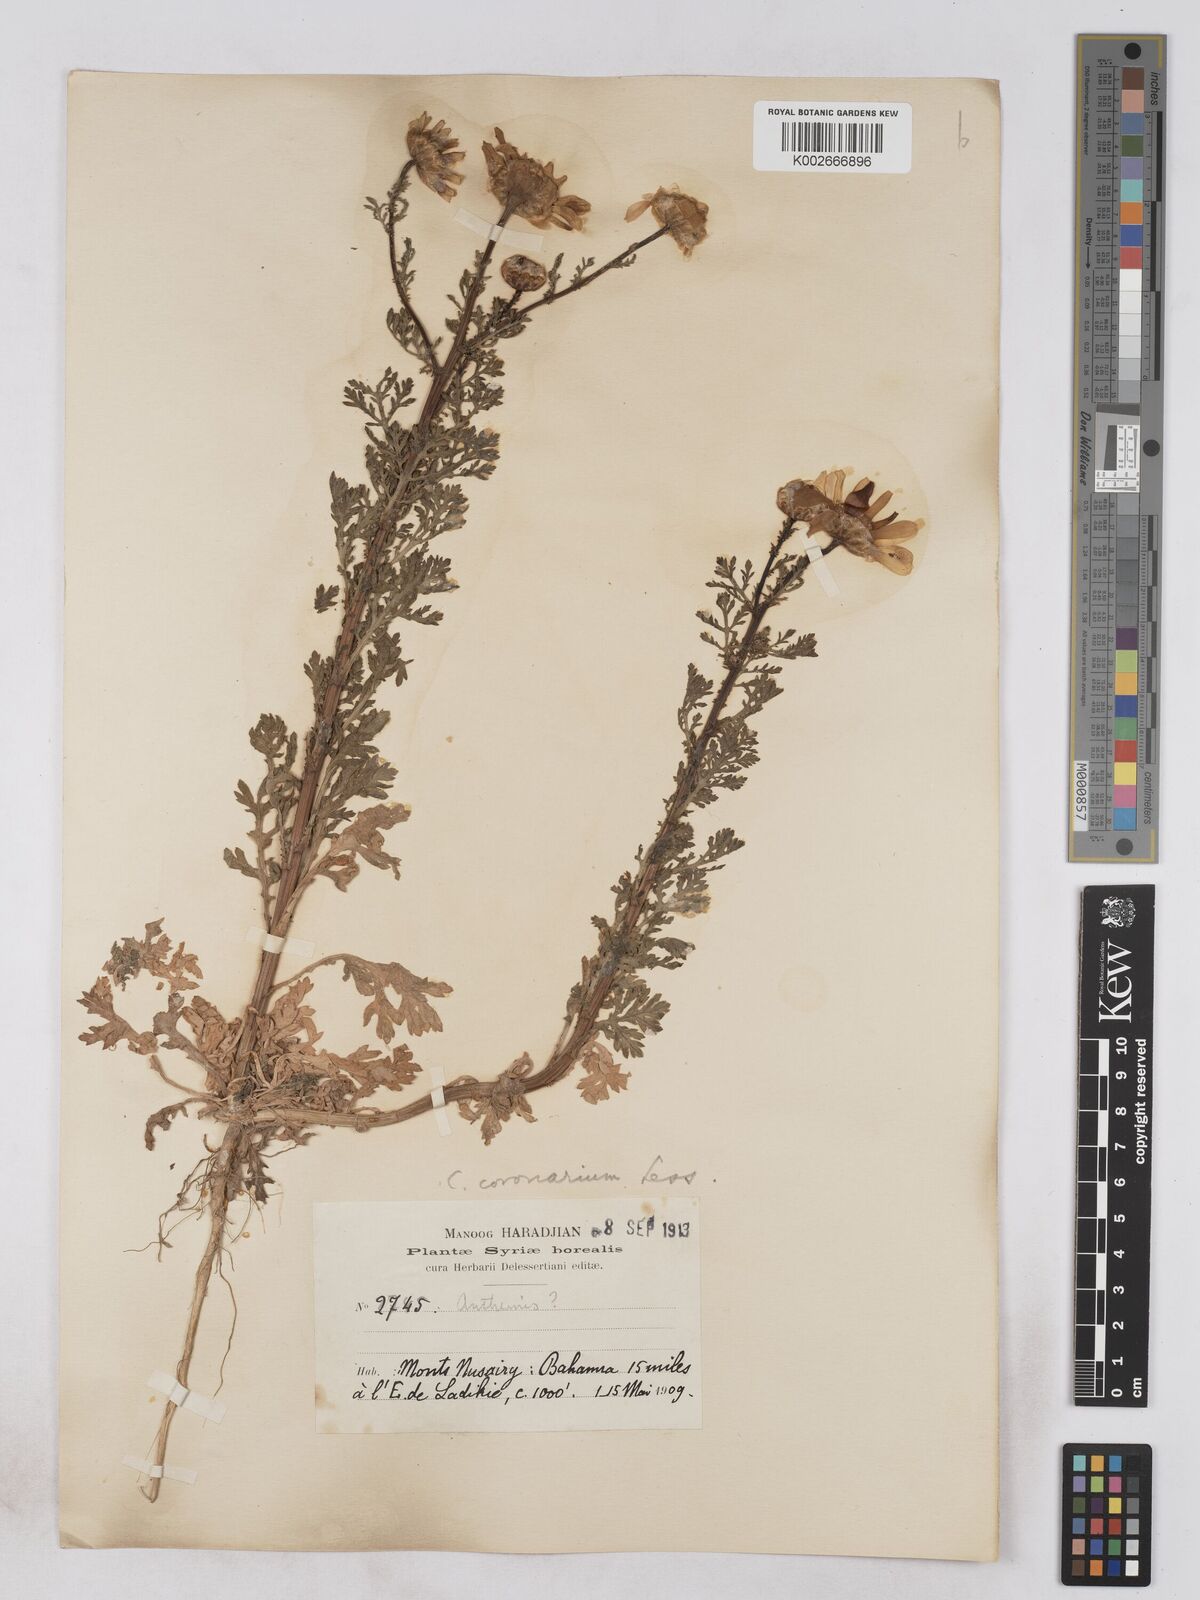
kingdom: Plantae
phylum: Tracheophyta
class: Magnoliopsida
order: Asterales
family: Asteraceae
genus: Glebionis
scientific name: Glebionis coronaria
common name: Crowndaisy
